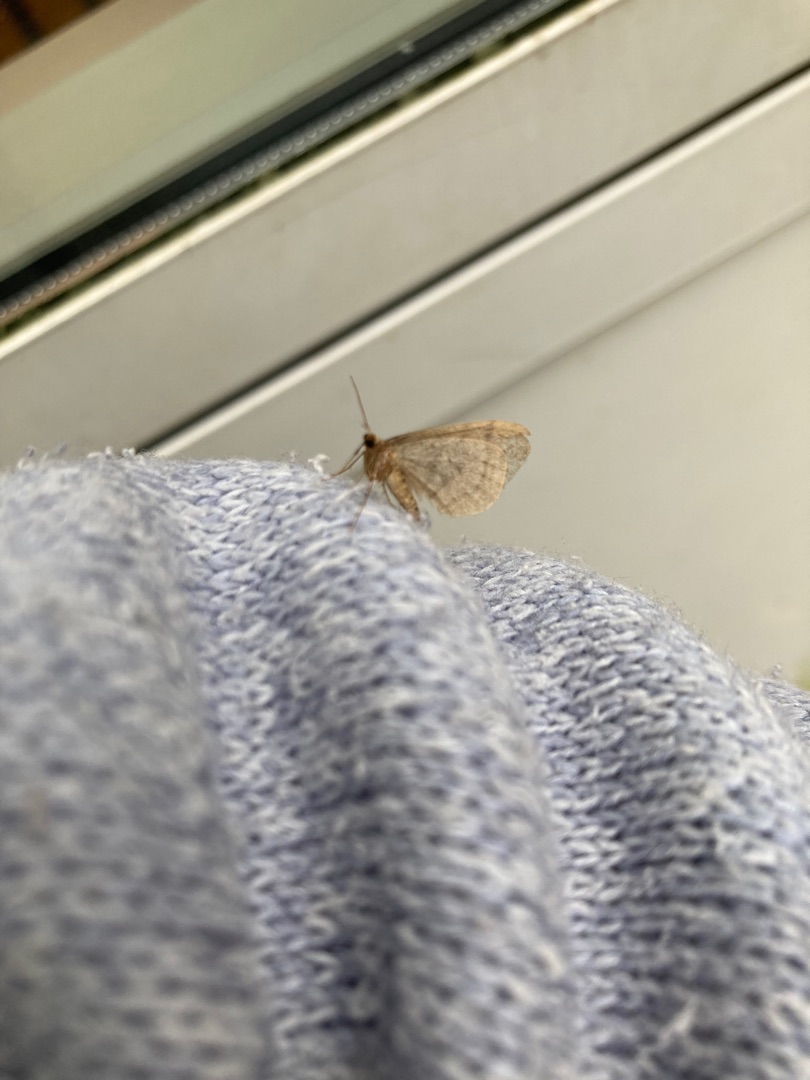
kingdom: Animalia
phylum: Arthropoda
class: Insecta
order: Lepidoptera
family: Geometridae
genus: Operophtera
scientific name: Operophtera brumata
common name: Lille frostmåler
